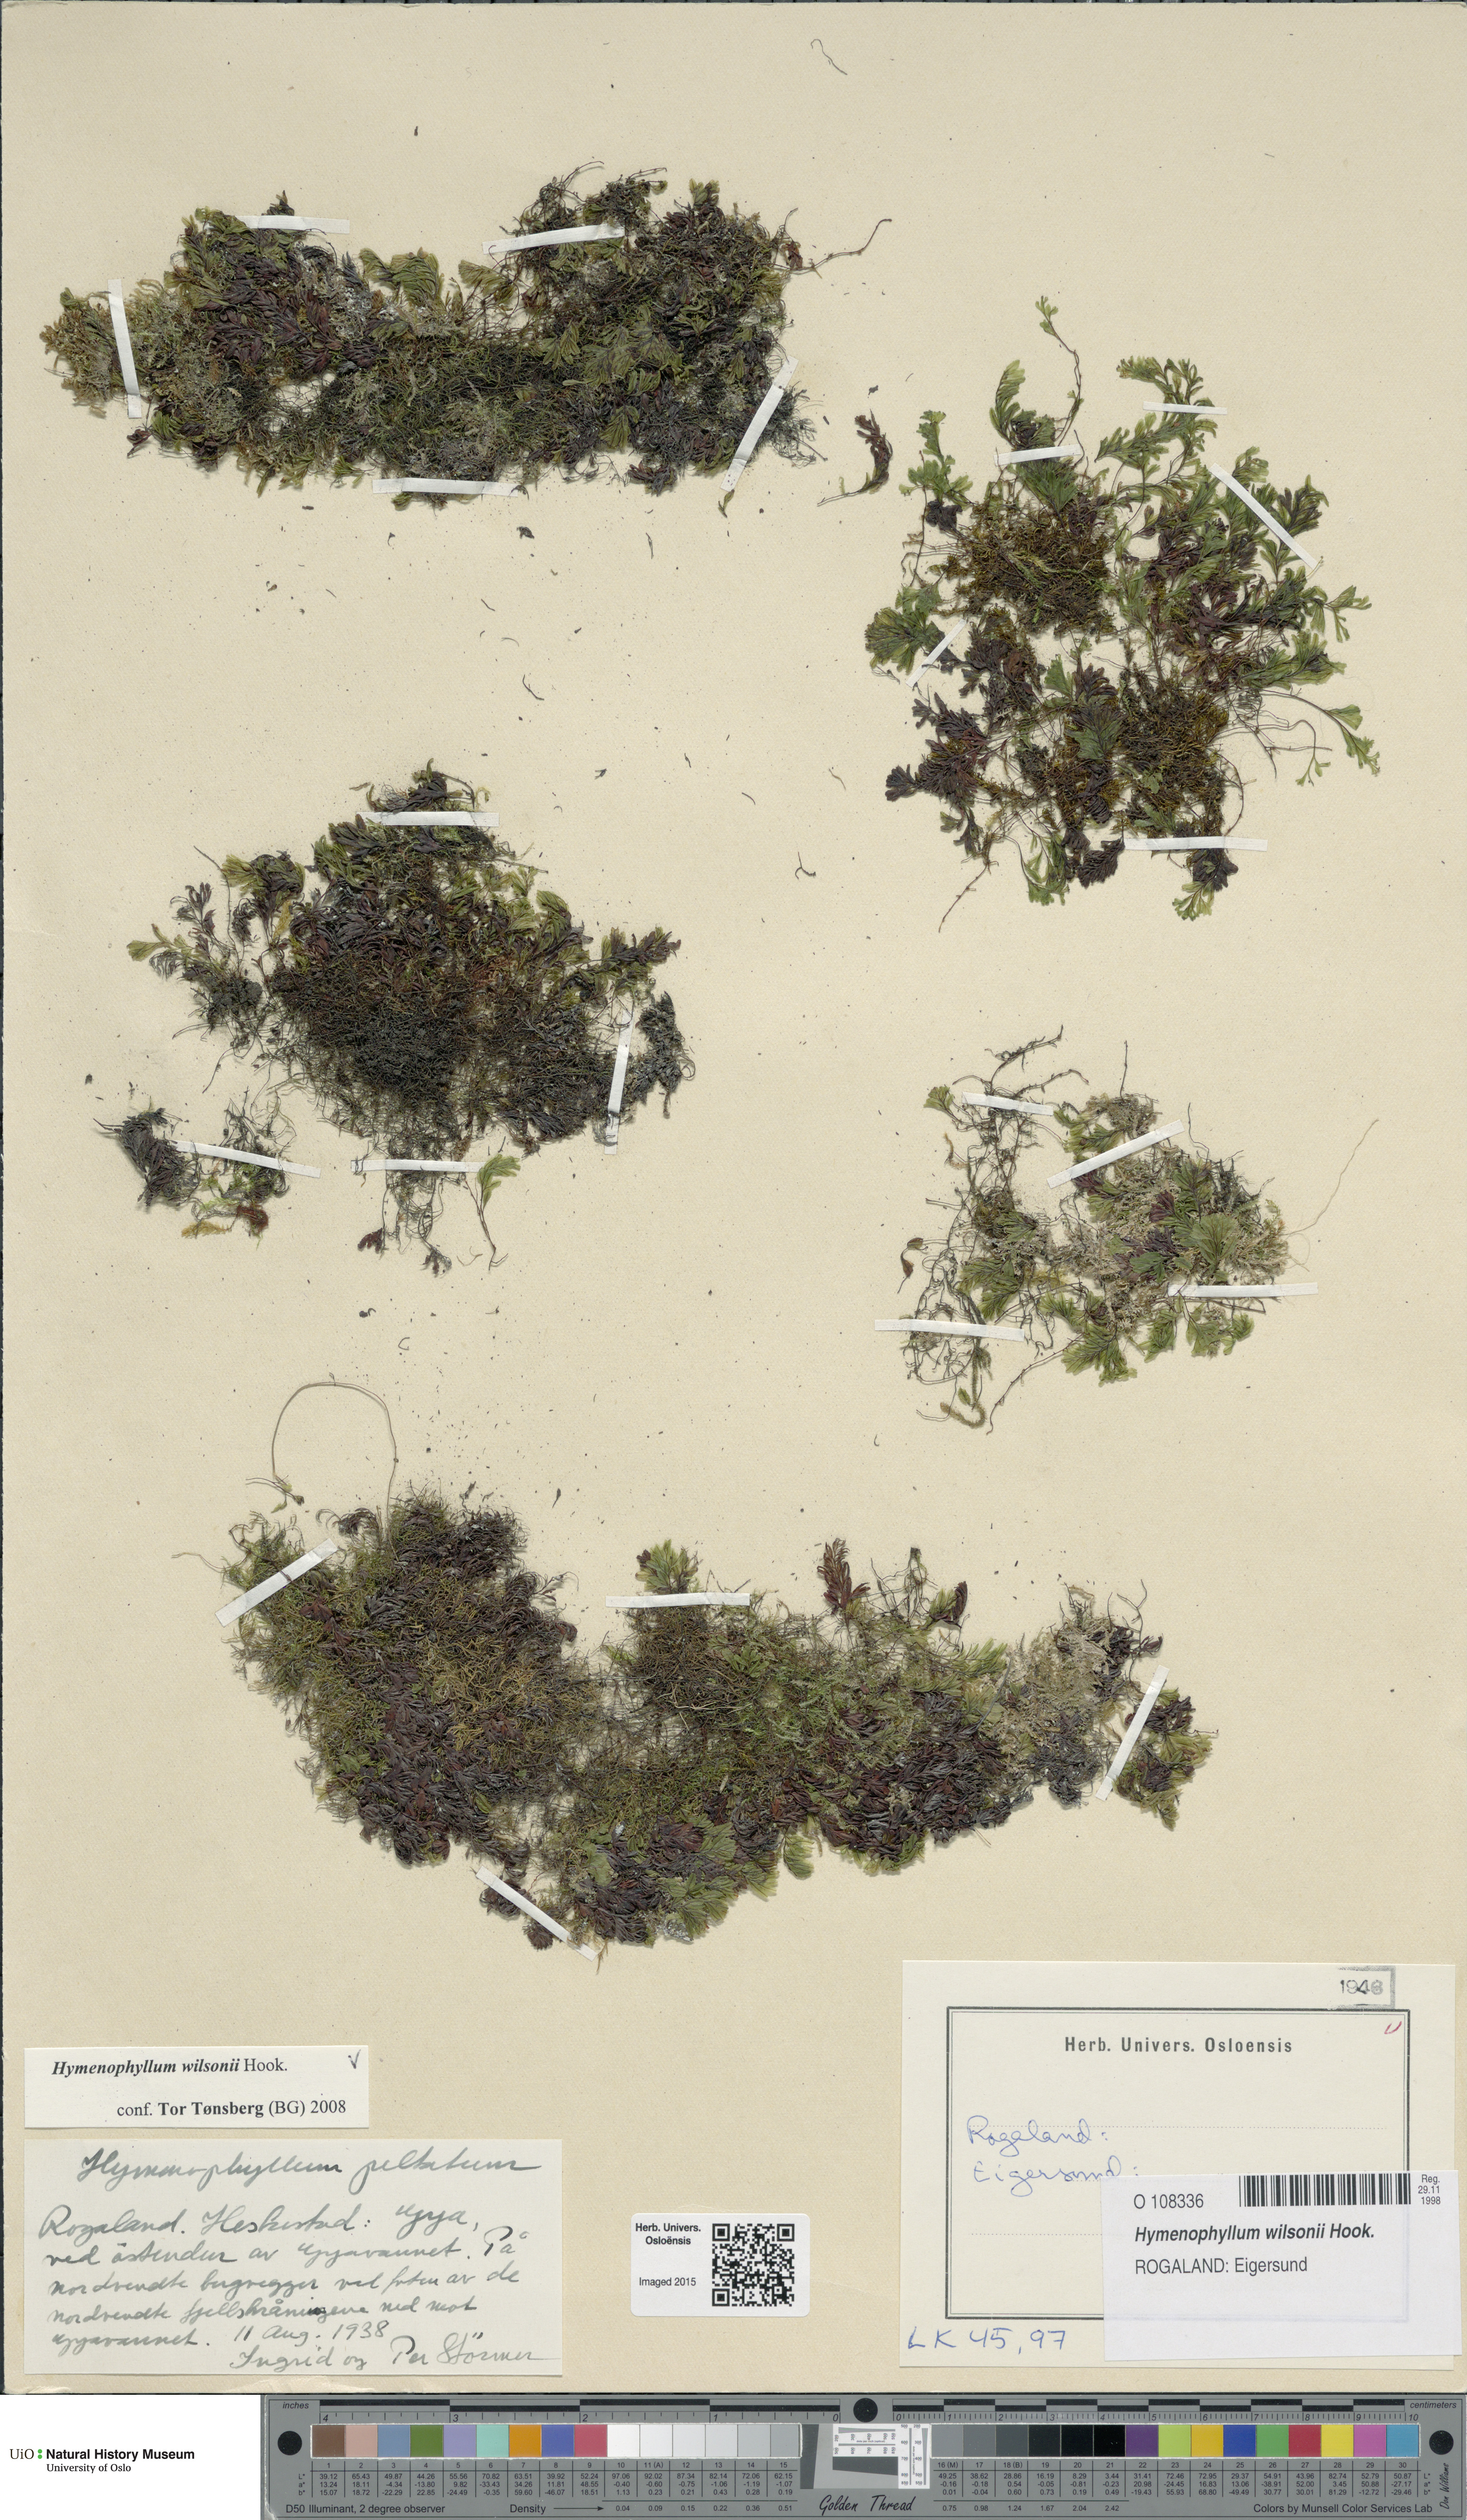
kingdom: Plantae
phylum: Tracheophyta
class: Polypodiopsida
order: Hymenophyllales
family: Hymenophyllaceae
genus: Hymenophyllum
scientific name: Hymenophyllum peltatum
